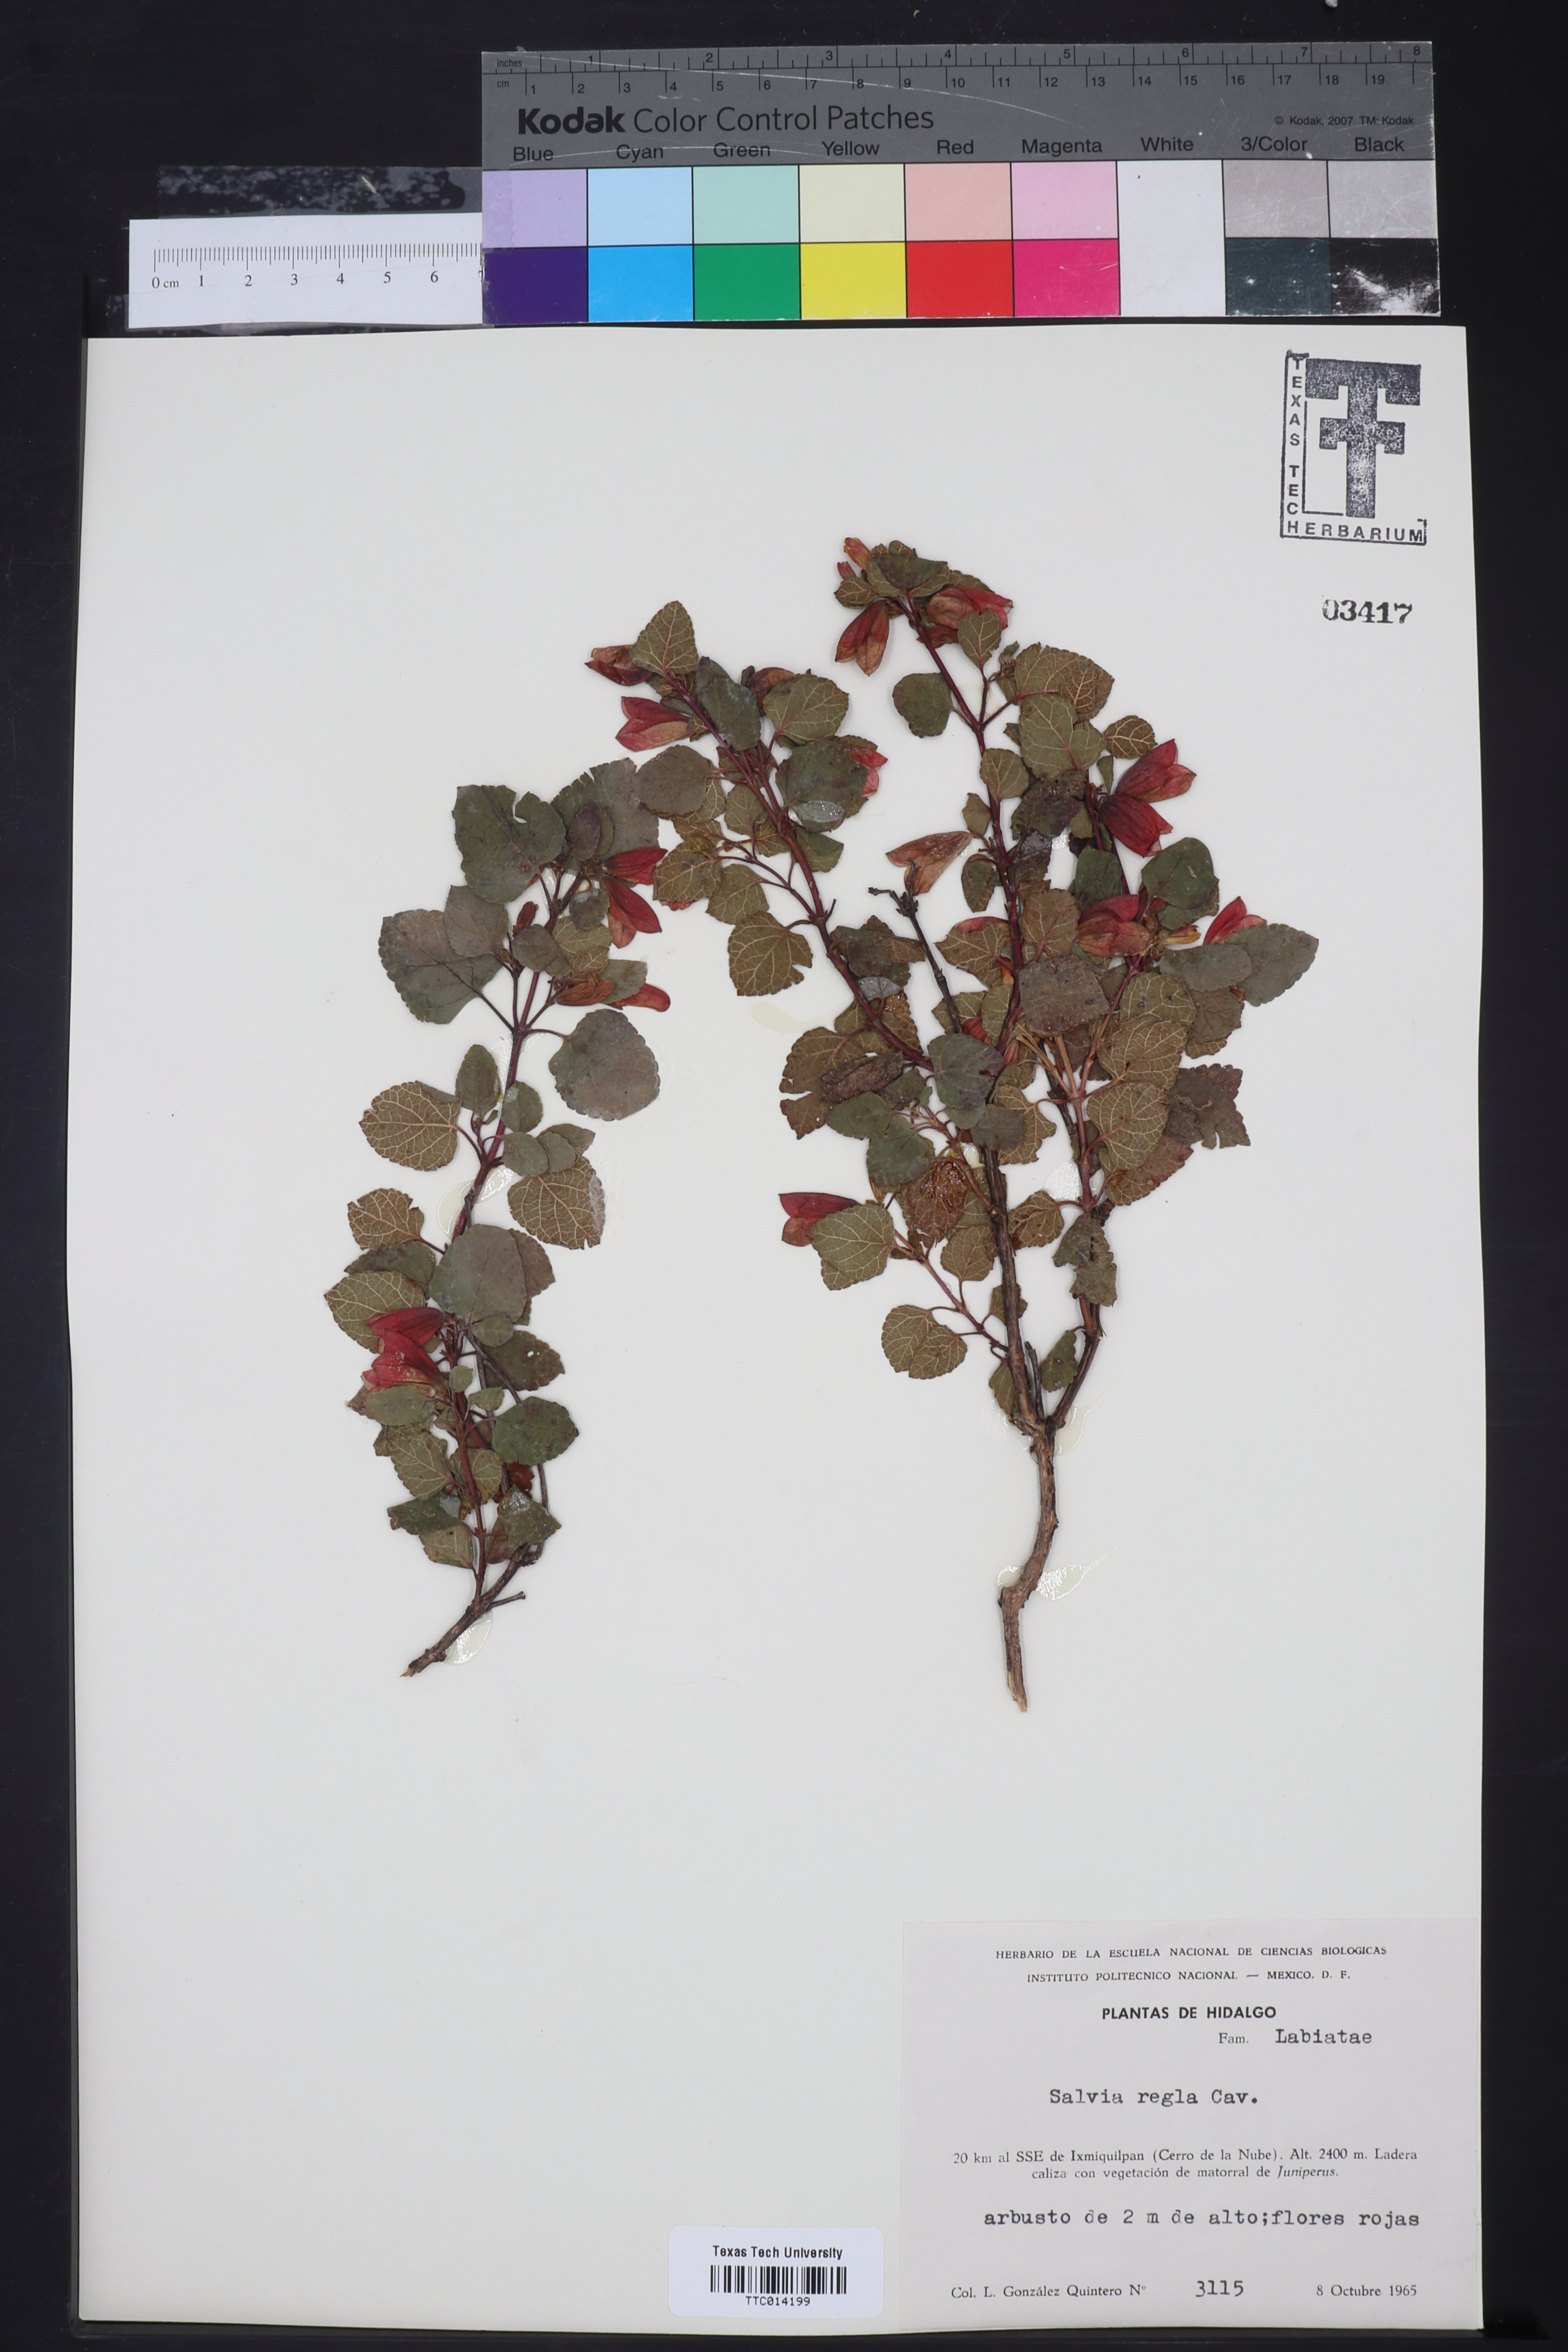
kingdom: Plantae
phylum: Tracheophyta
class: Magnoliopsida
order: Lamiales
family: Lamiaceae
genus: Salvia
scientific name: Salvia regla
